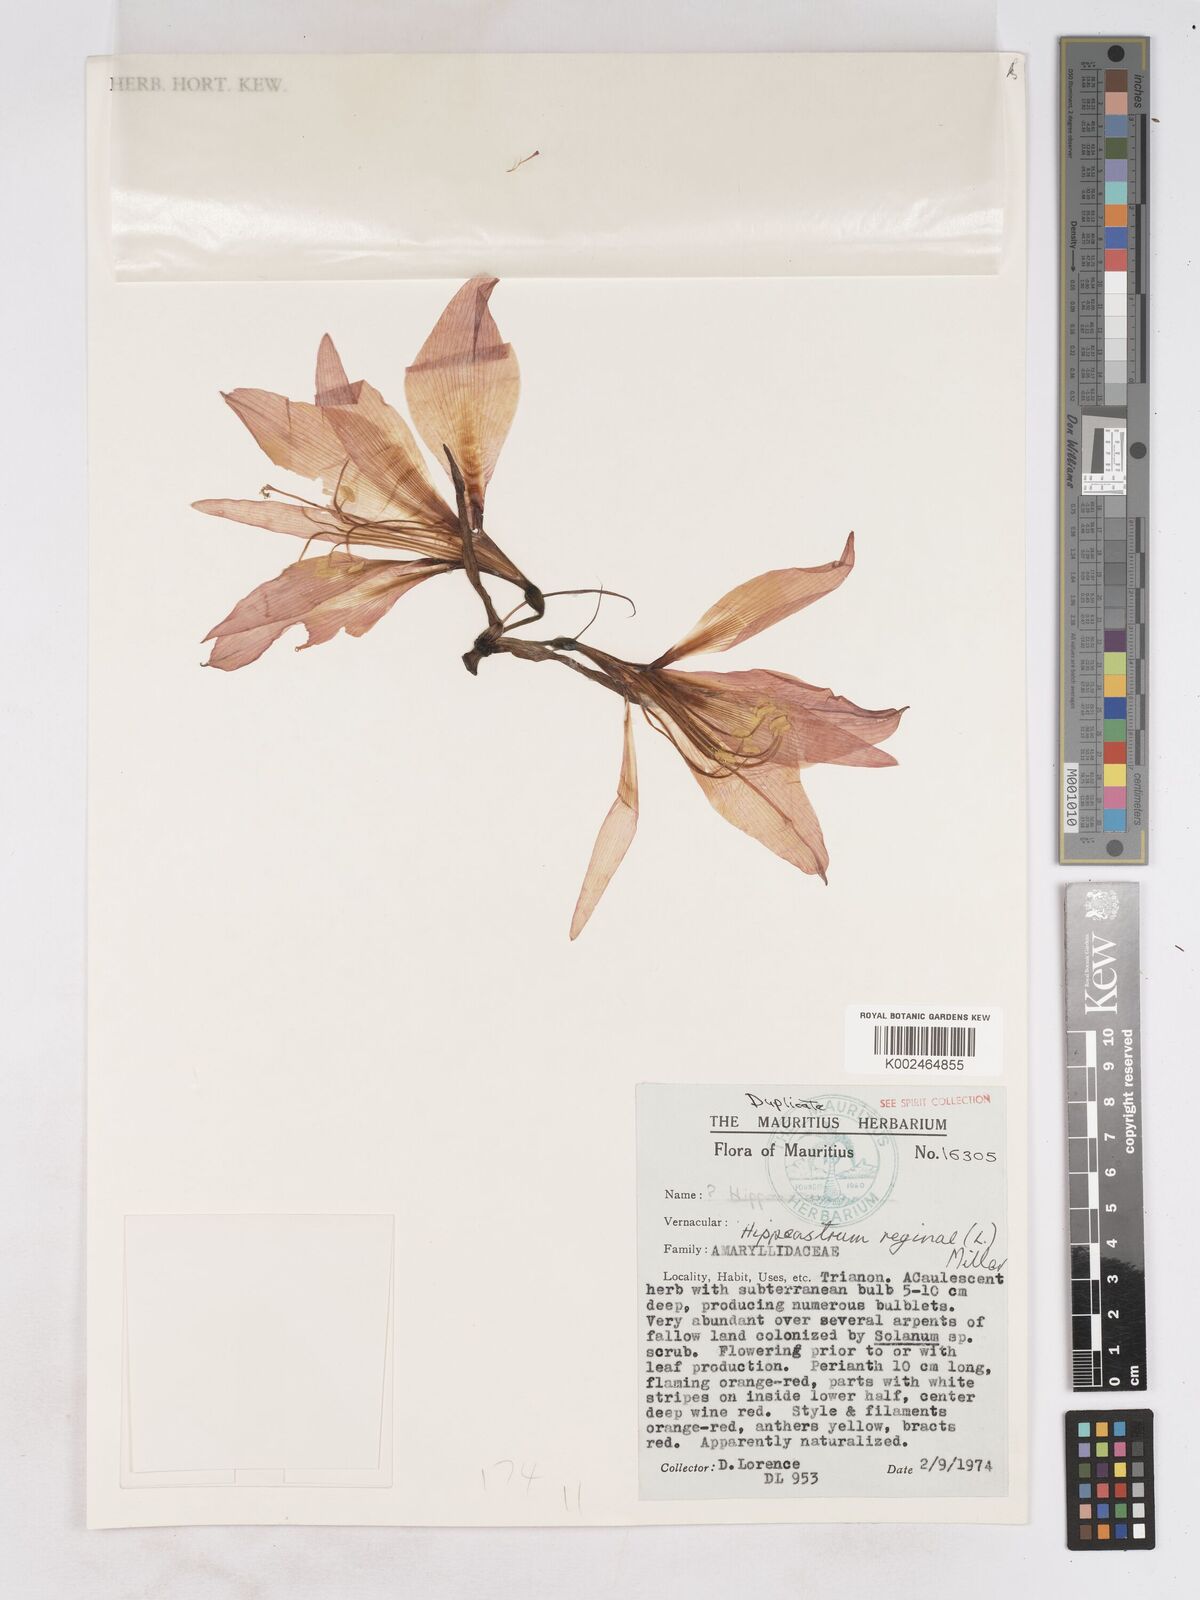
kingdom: Plantae
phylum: Tracheophyta
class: Liliopsida
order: Asparagales
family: Amaryllidaceae
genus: Hippeastrum
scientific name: Hippeastrum reginae
